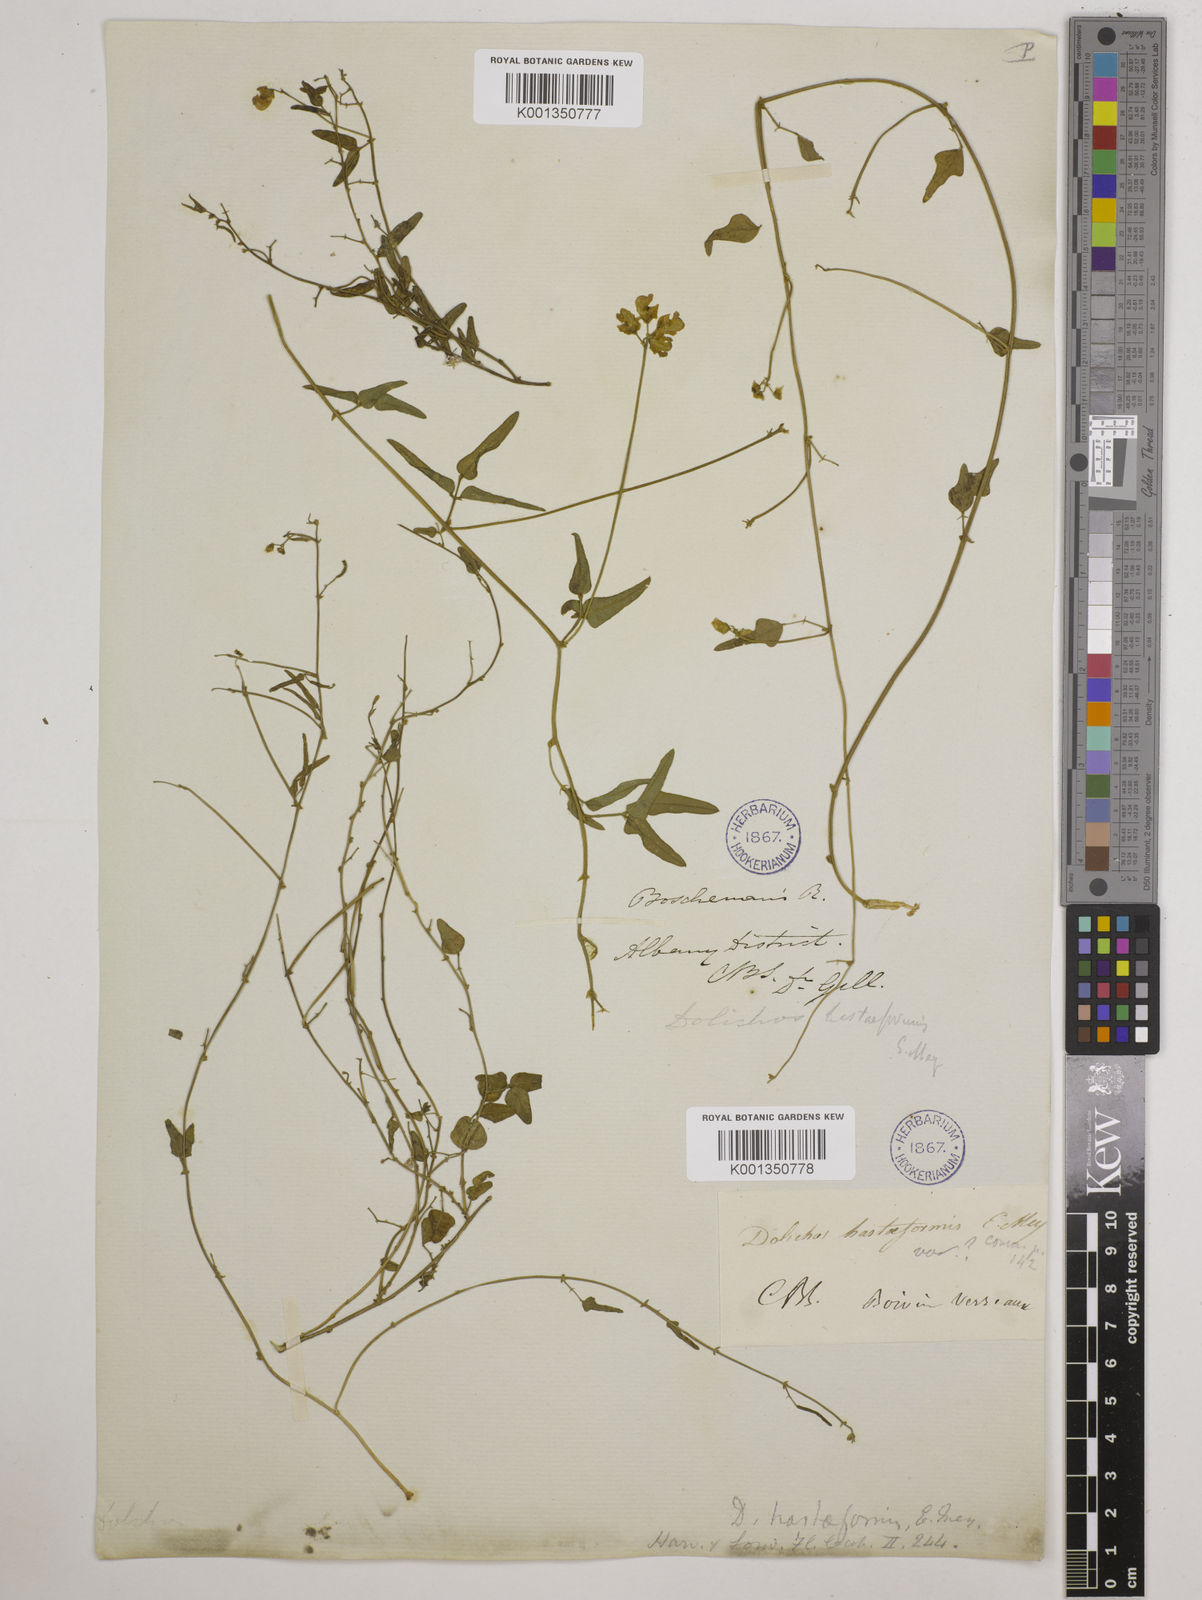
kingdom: Plantae
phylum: Tracheophyta
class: Magnoliopsida
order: Fabales
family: Fabaceae
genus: Dolichos
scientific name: Dolichos
